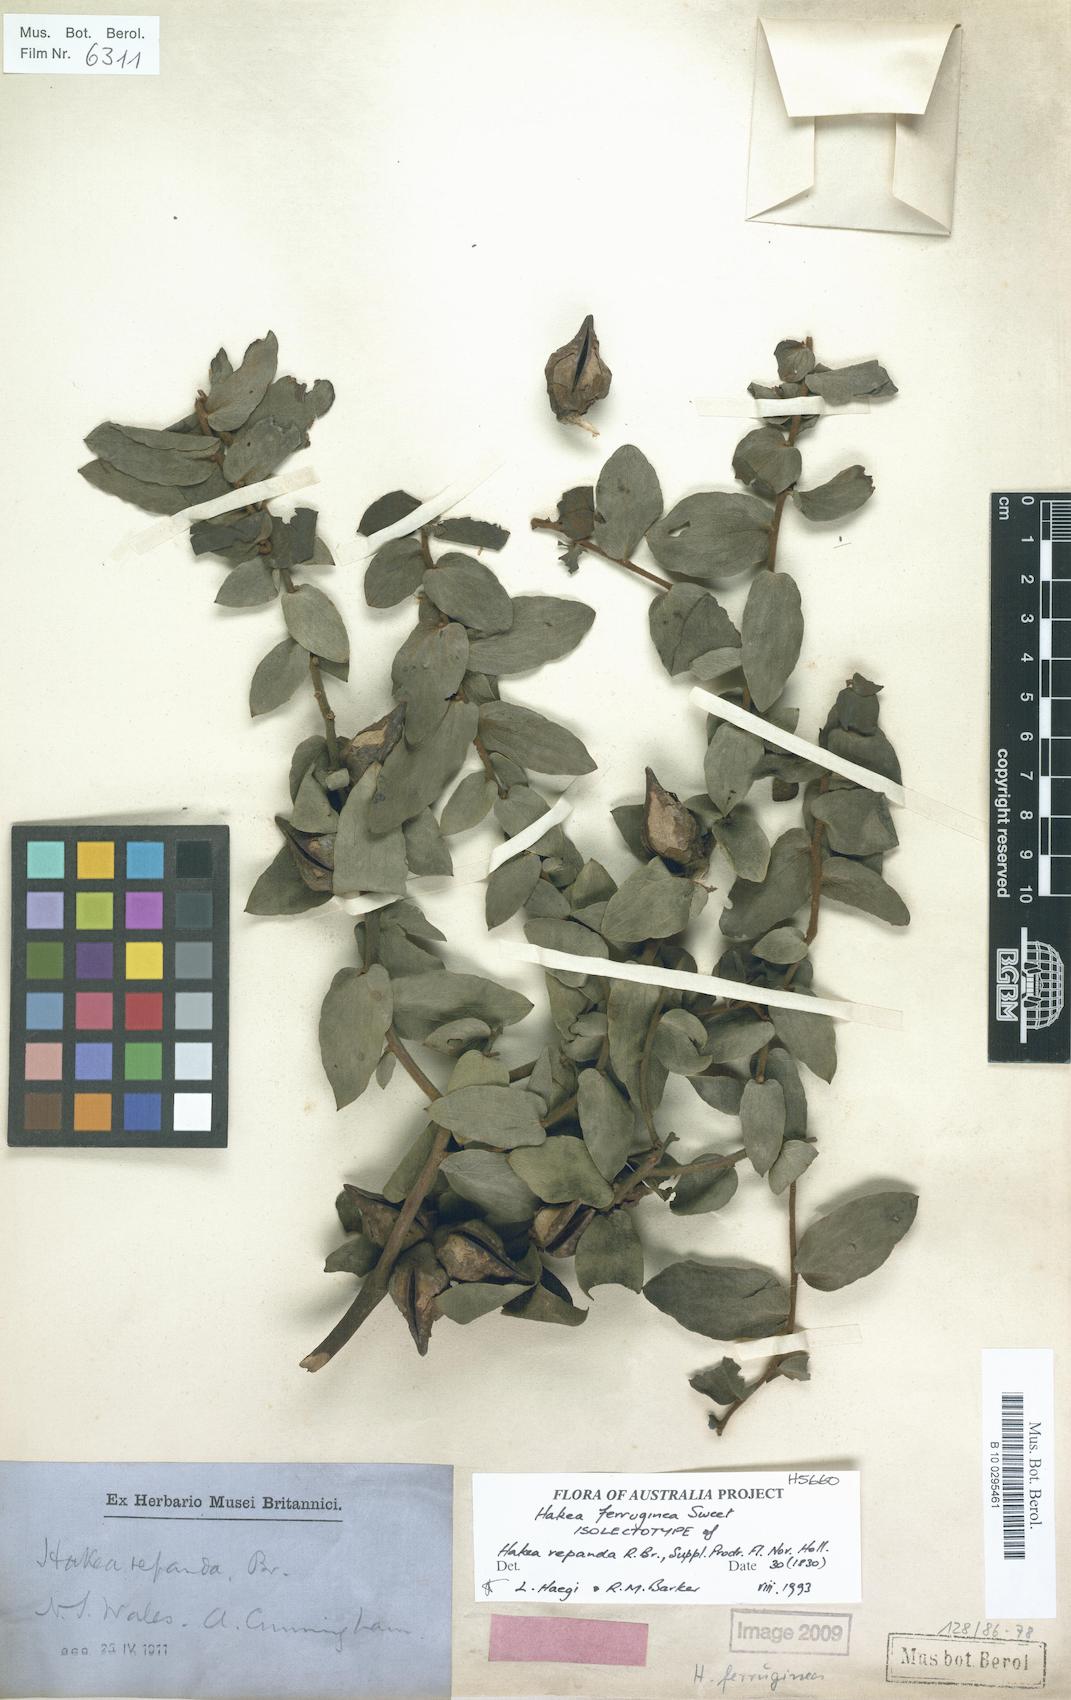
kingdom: Plantae
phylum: Tracheophyta
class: Magnoliopsida
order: Proteales
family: Proteaceae
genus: Hakea
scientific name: Hakea ferruginea
